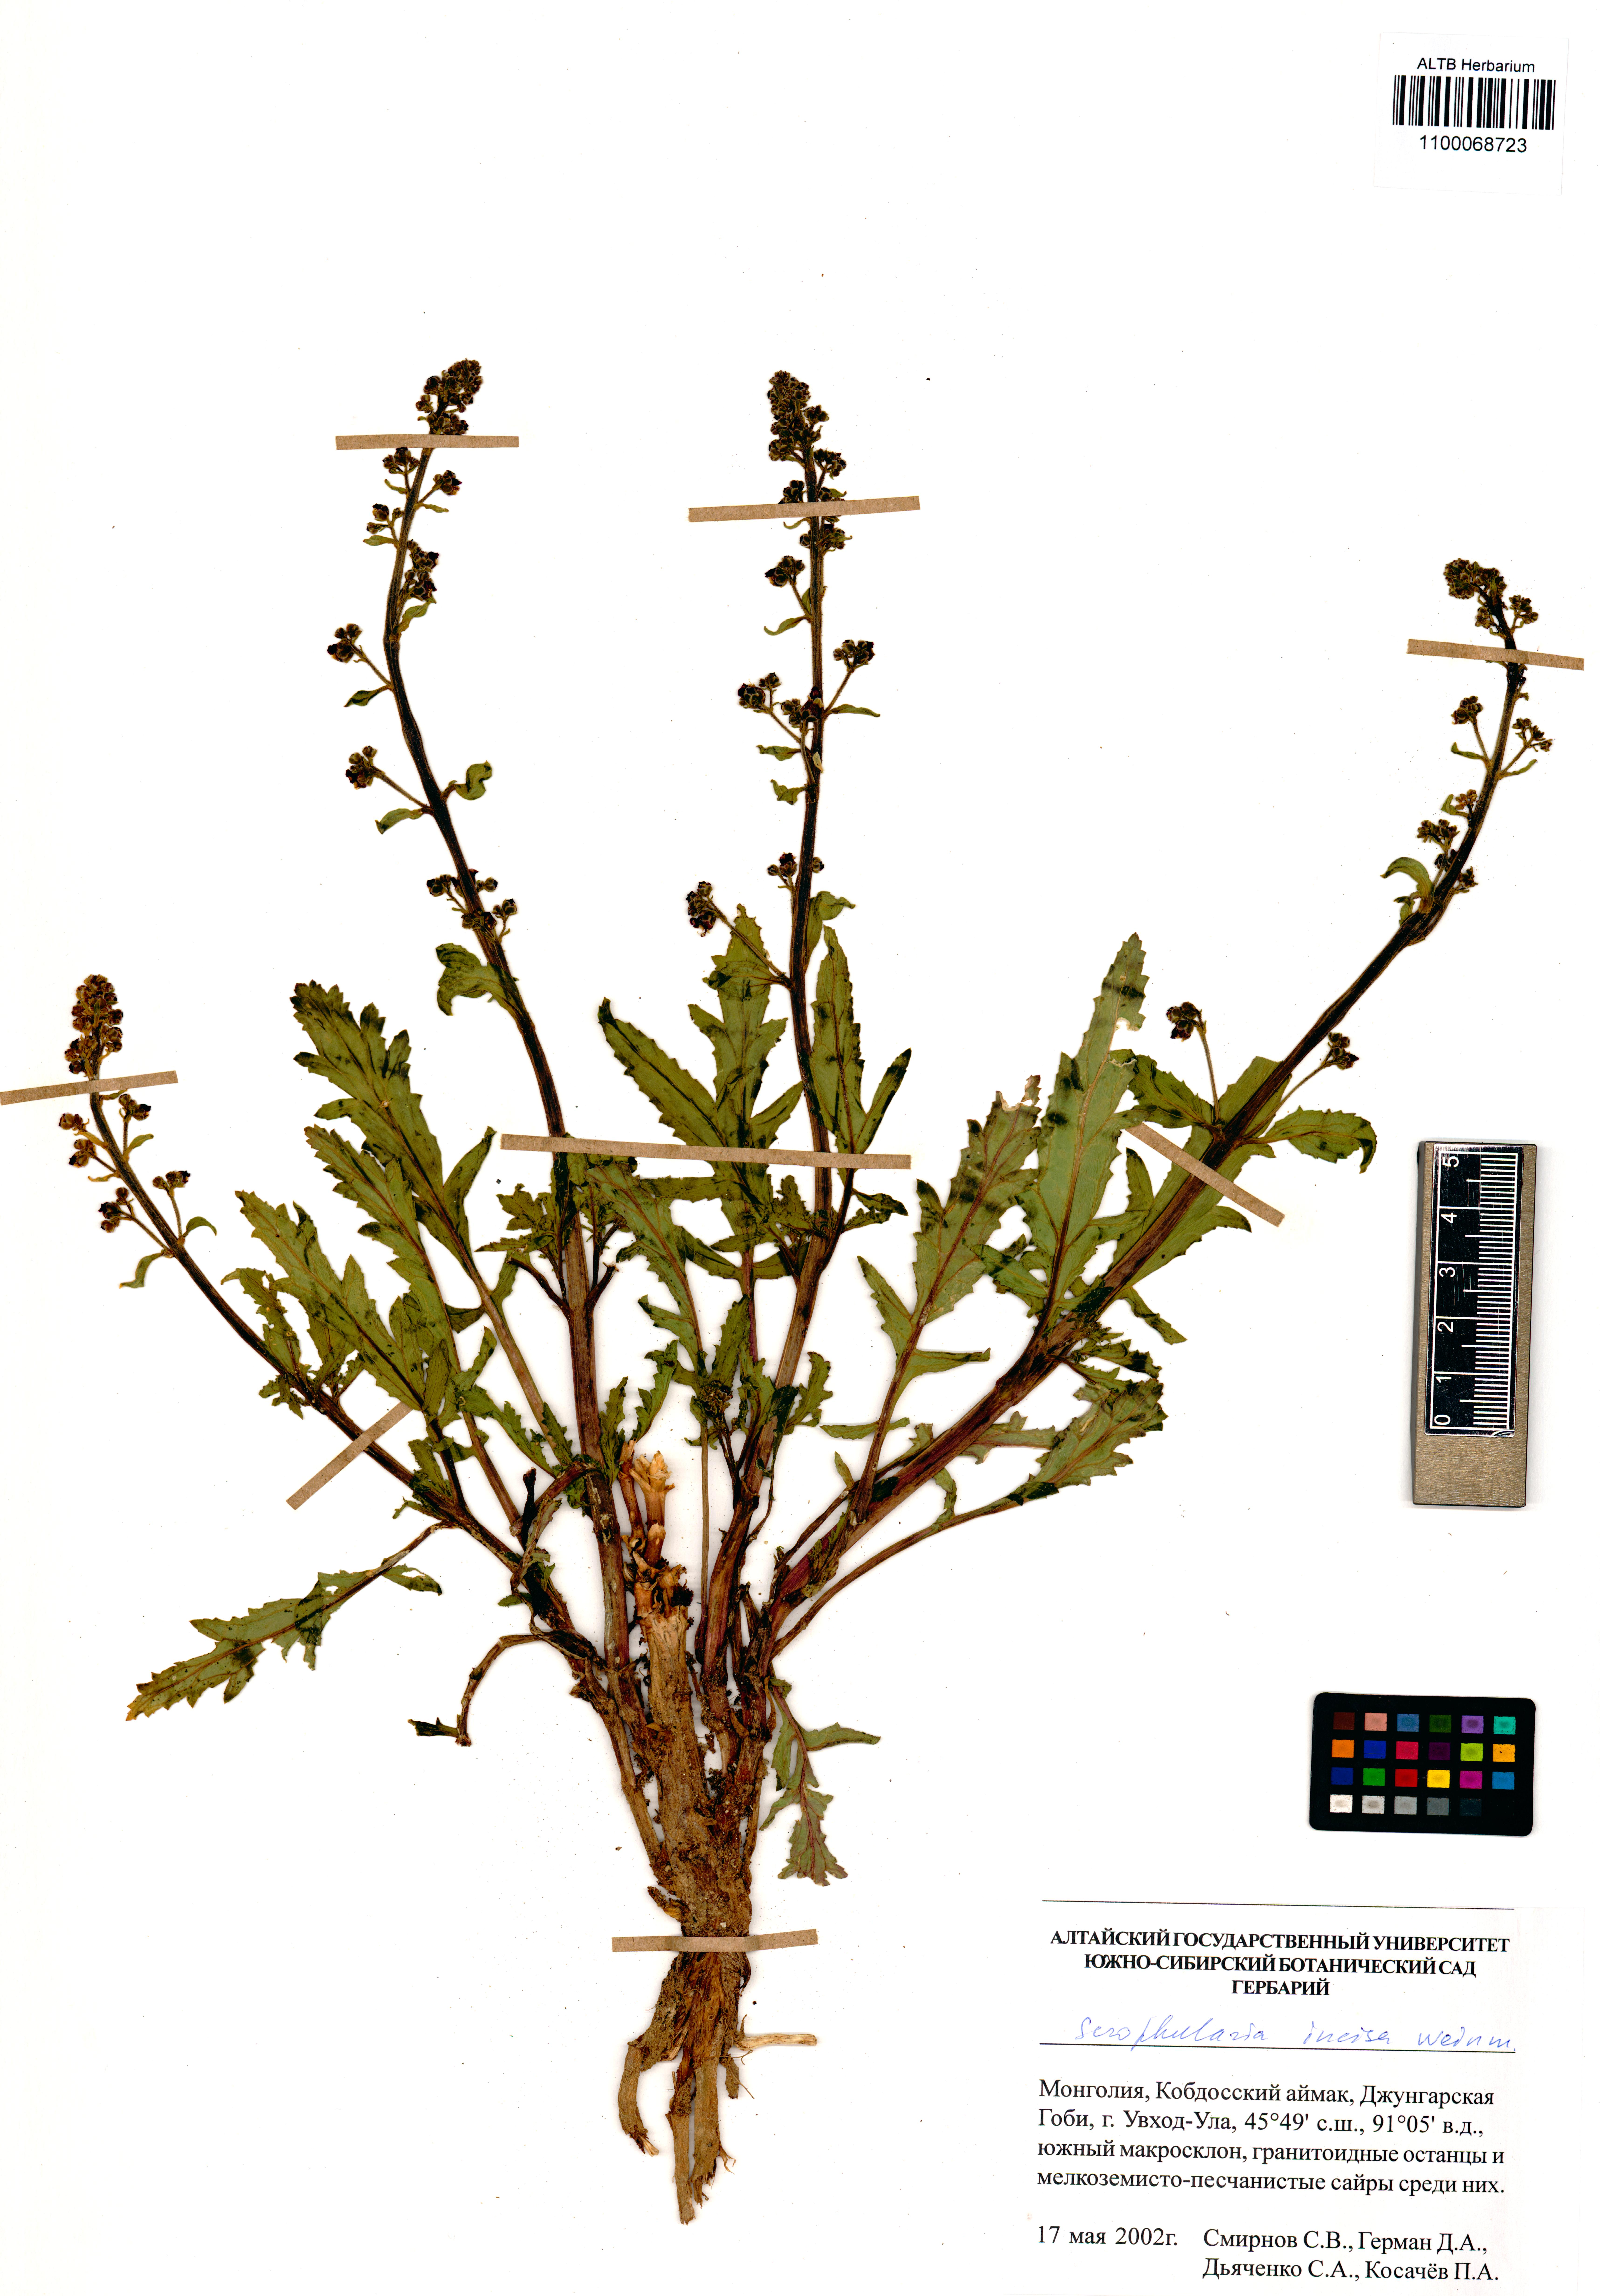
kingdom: Plantae
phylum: Tracheophyta
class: Magnoliopsida
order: Lamiales
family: Scrophulariaceae
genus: Scrophularia
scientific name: Scrophularia incisa
